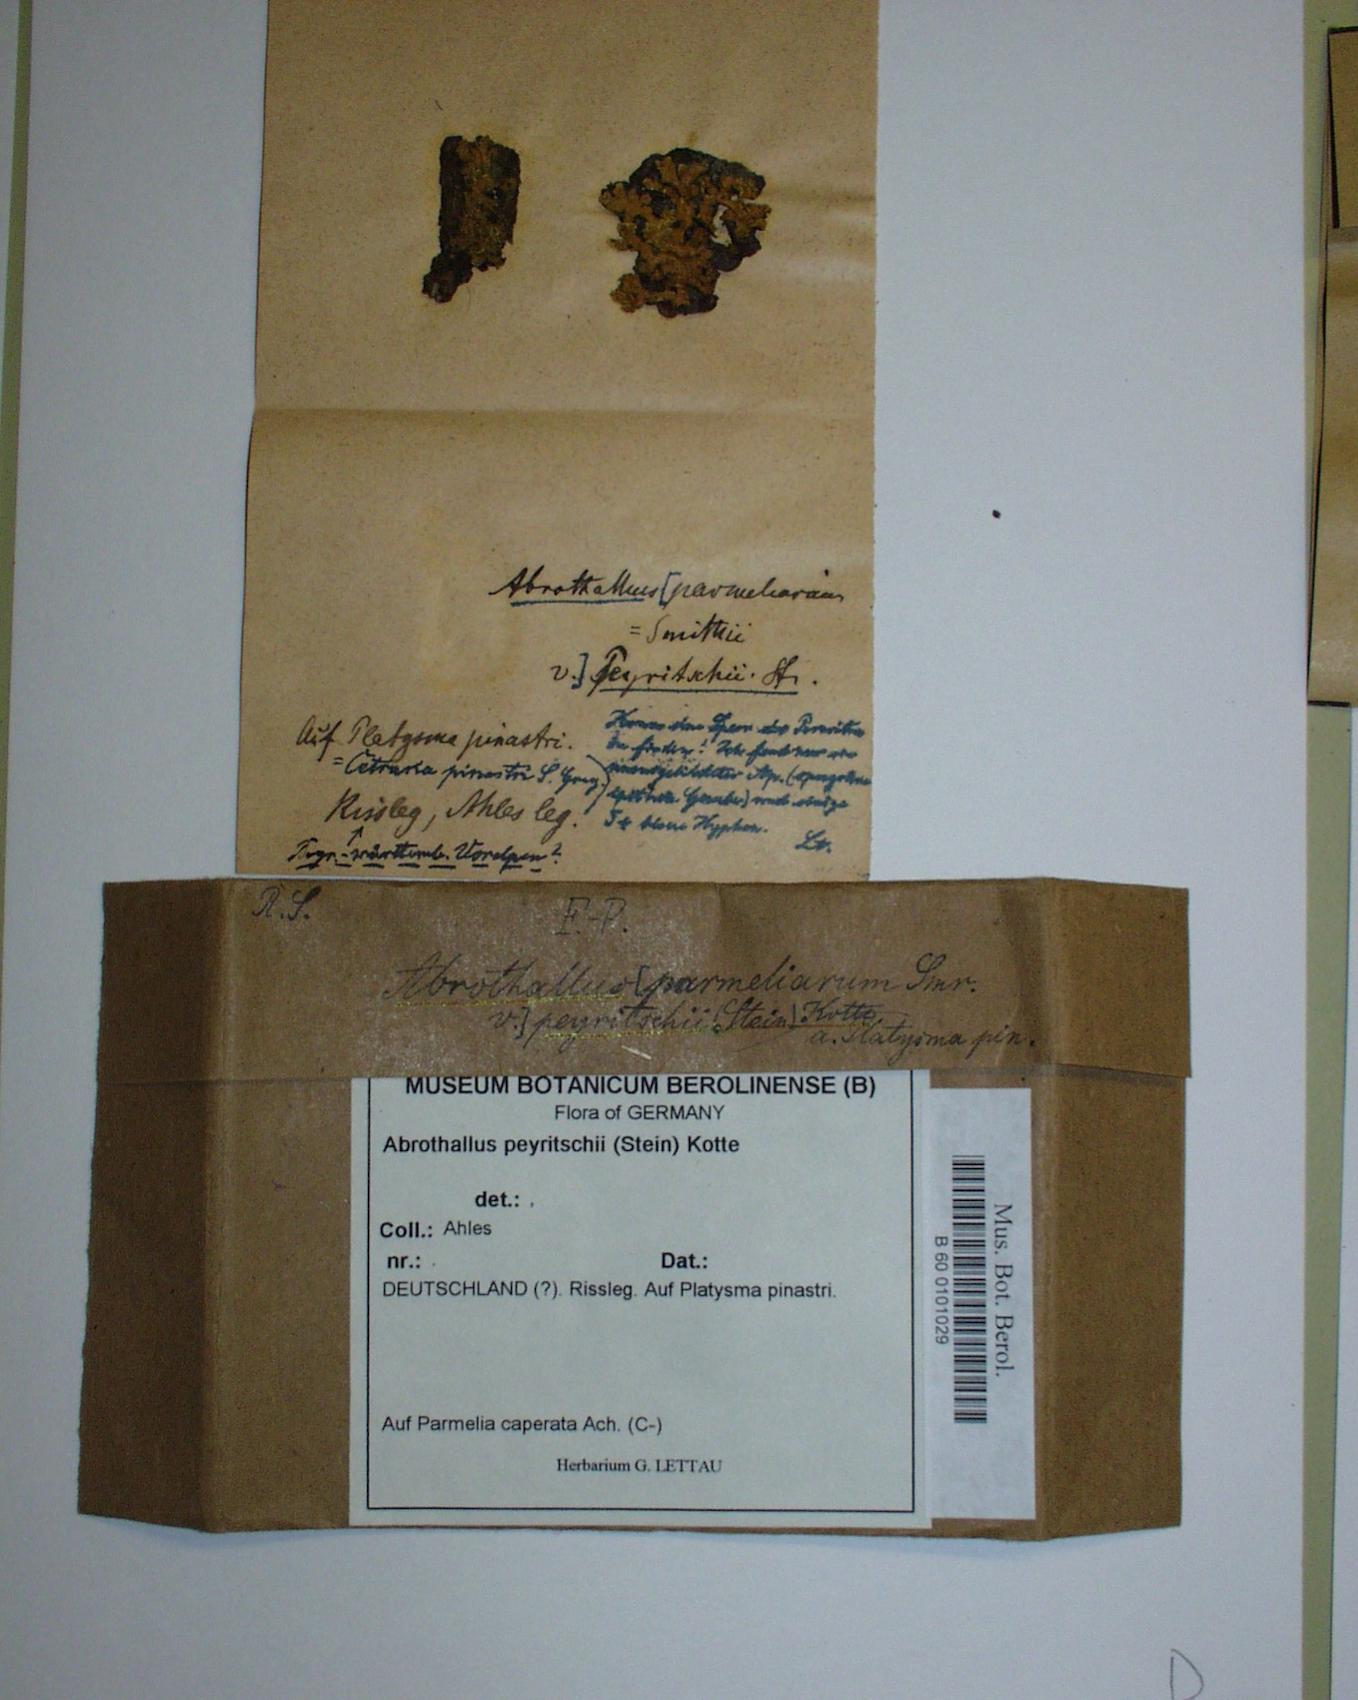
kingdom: Fungi
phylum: Ascomycota
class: Dothideomycetes
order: Abrothallales
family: Abrothallaceae
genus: Abrothallus
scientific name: Abrothallus peyritschii
